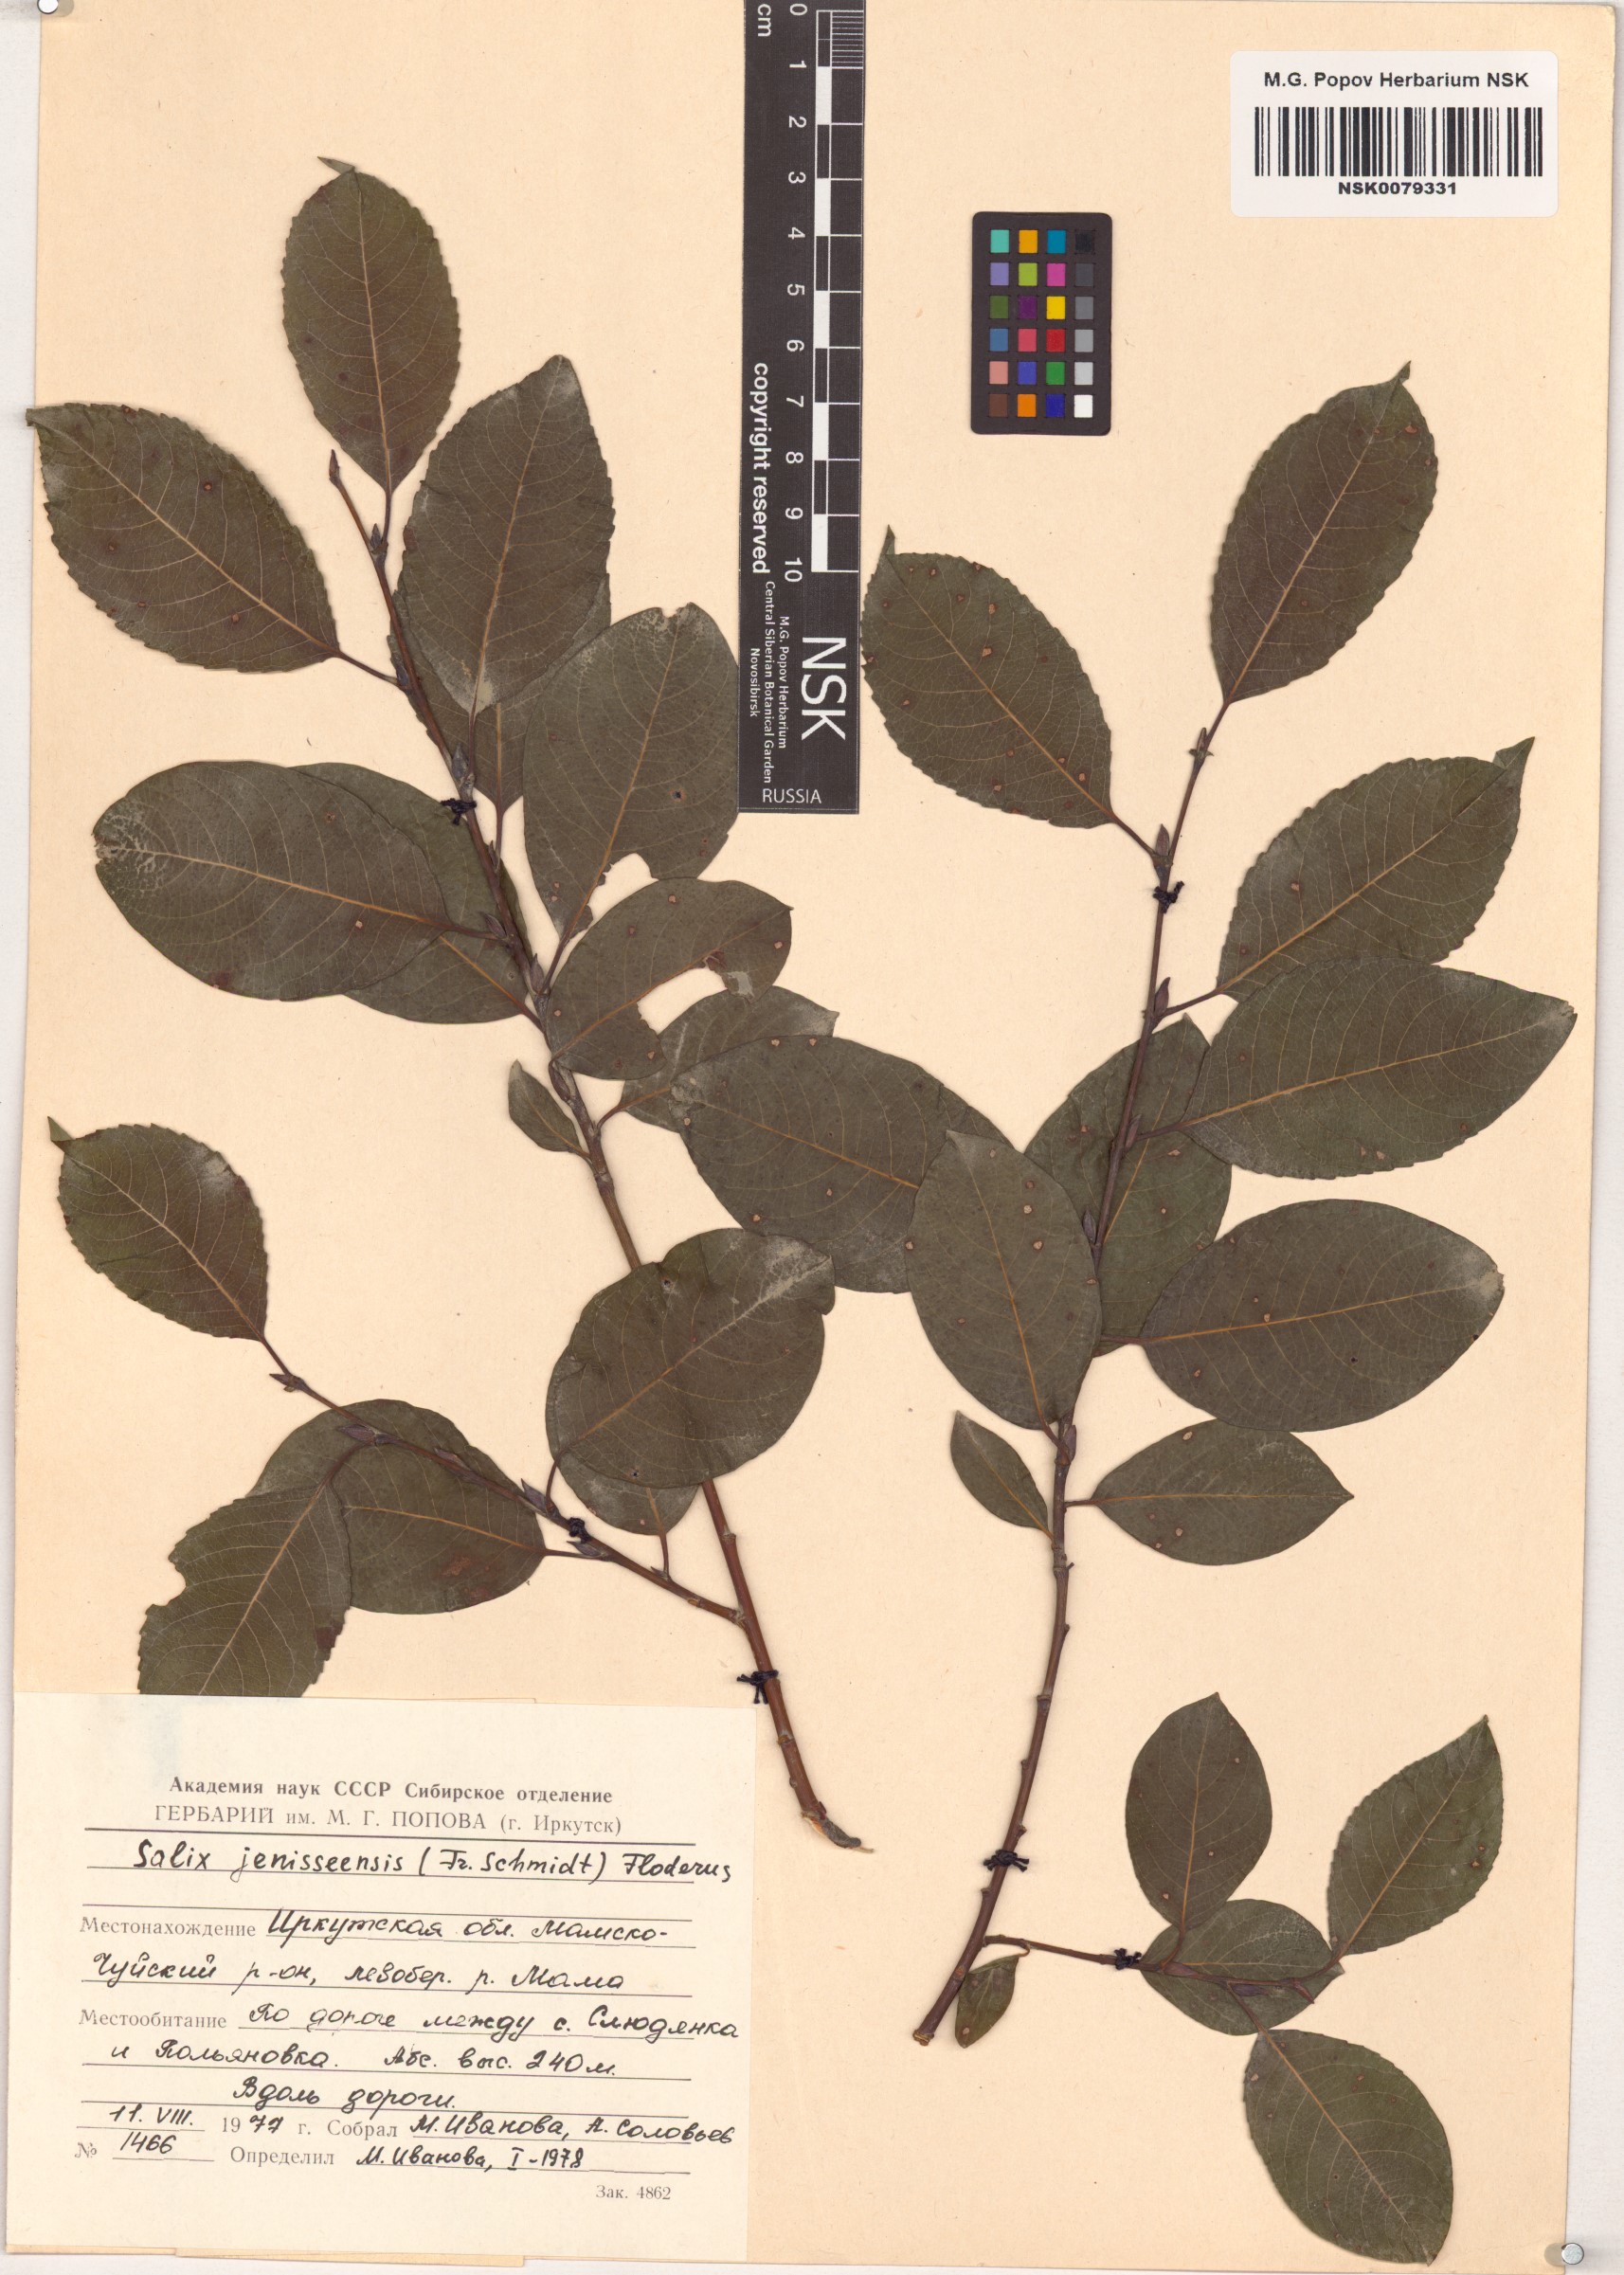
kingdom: Plantae
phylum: Tracheophyta
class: Magnoliopsida
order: Malpighiales
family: Salicaceae
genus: Salix
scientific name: Salix jenisseensis
